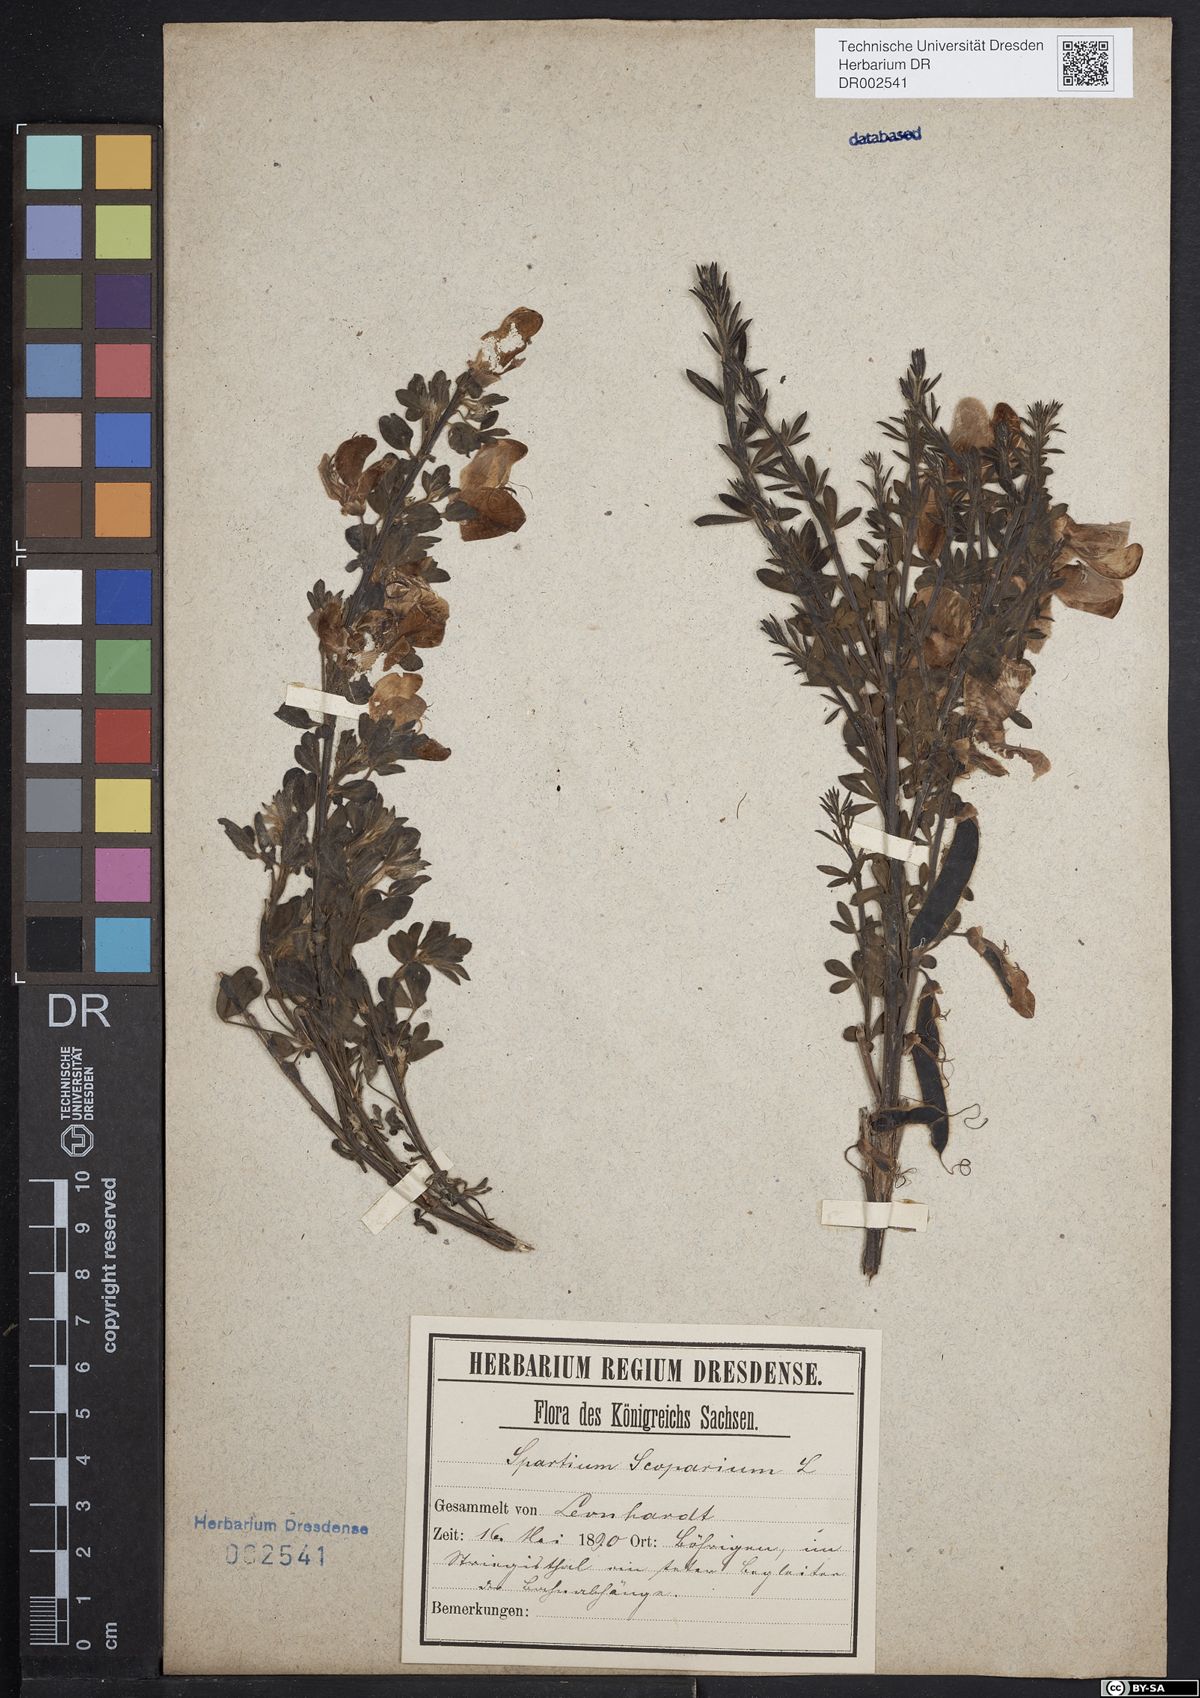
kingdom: Plantae
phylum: Tracheophyta
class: Magnoliopsida
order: Fabales
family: Fabaceae
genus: Cytisus
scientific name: Cytisus scoparius
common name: Scotch broom
